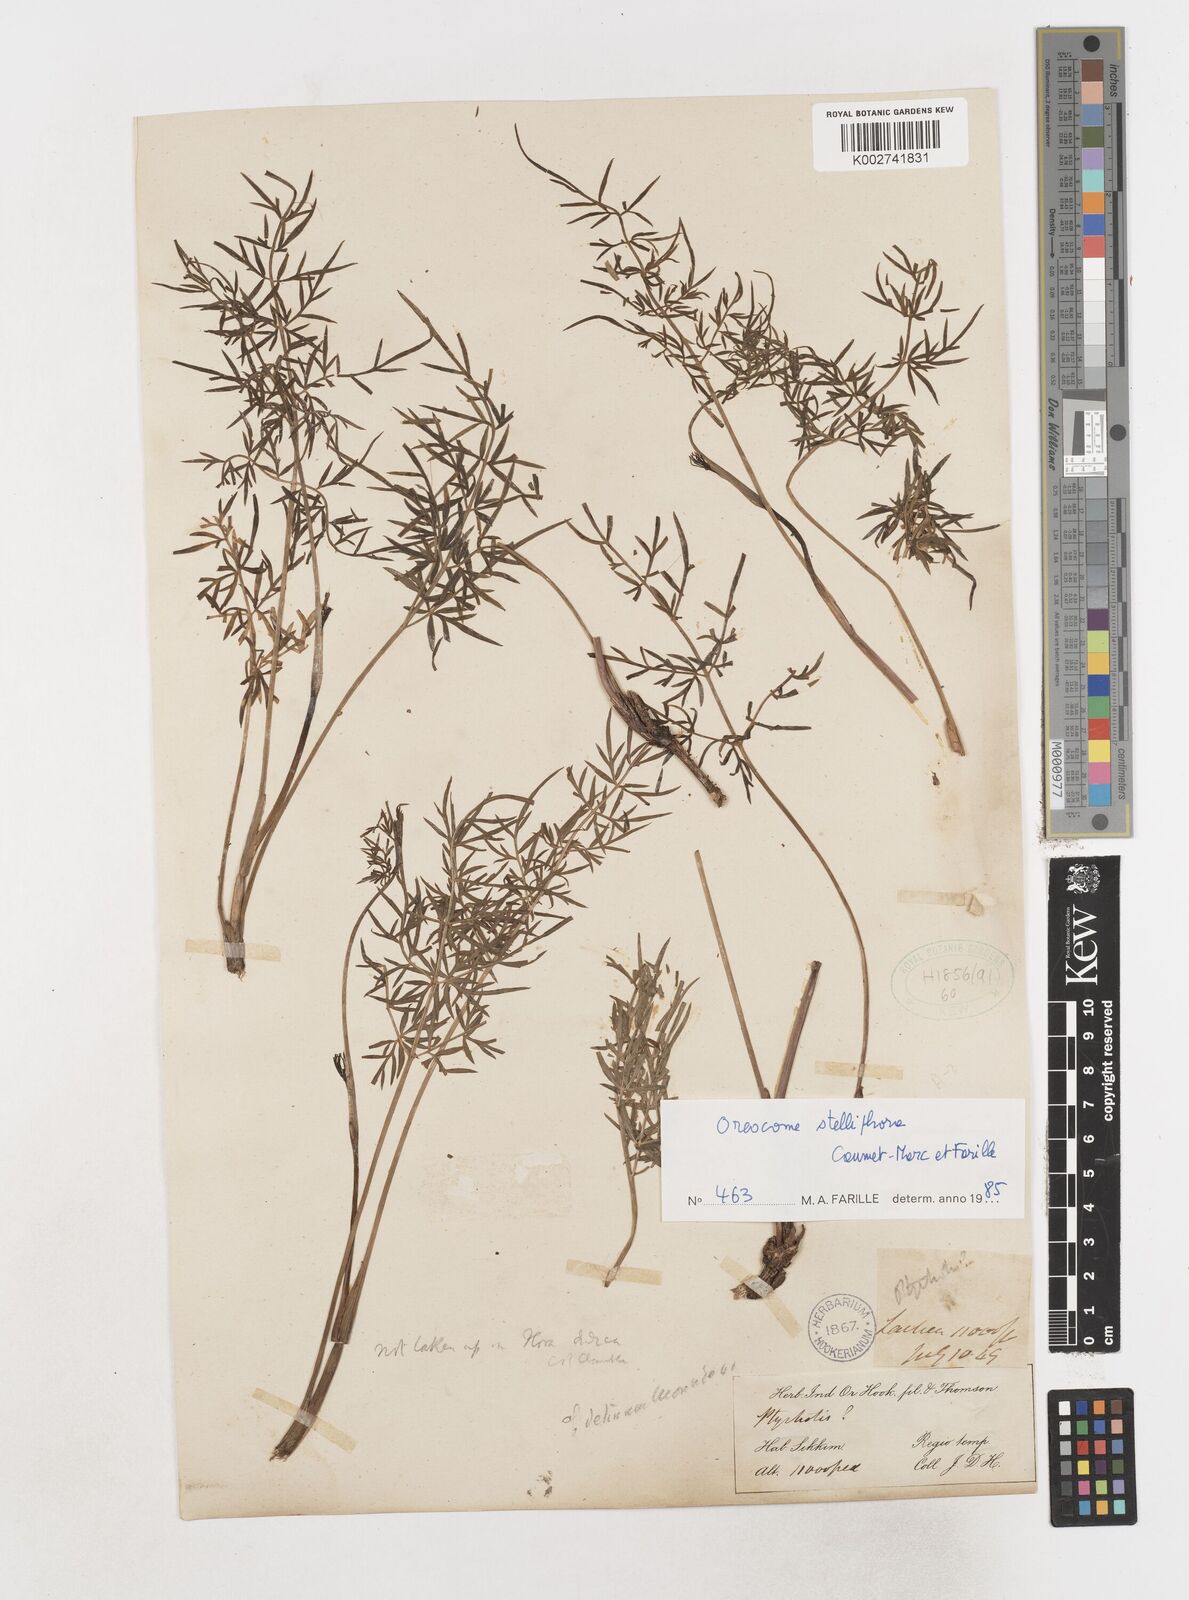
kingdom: Plantae
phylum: Tracheophyta
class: Magnoliopsida
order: Apiales
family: Apiaceae
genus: Oreocomopsis
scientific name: Oreocomopsis stelliphora
